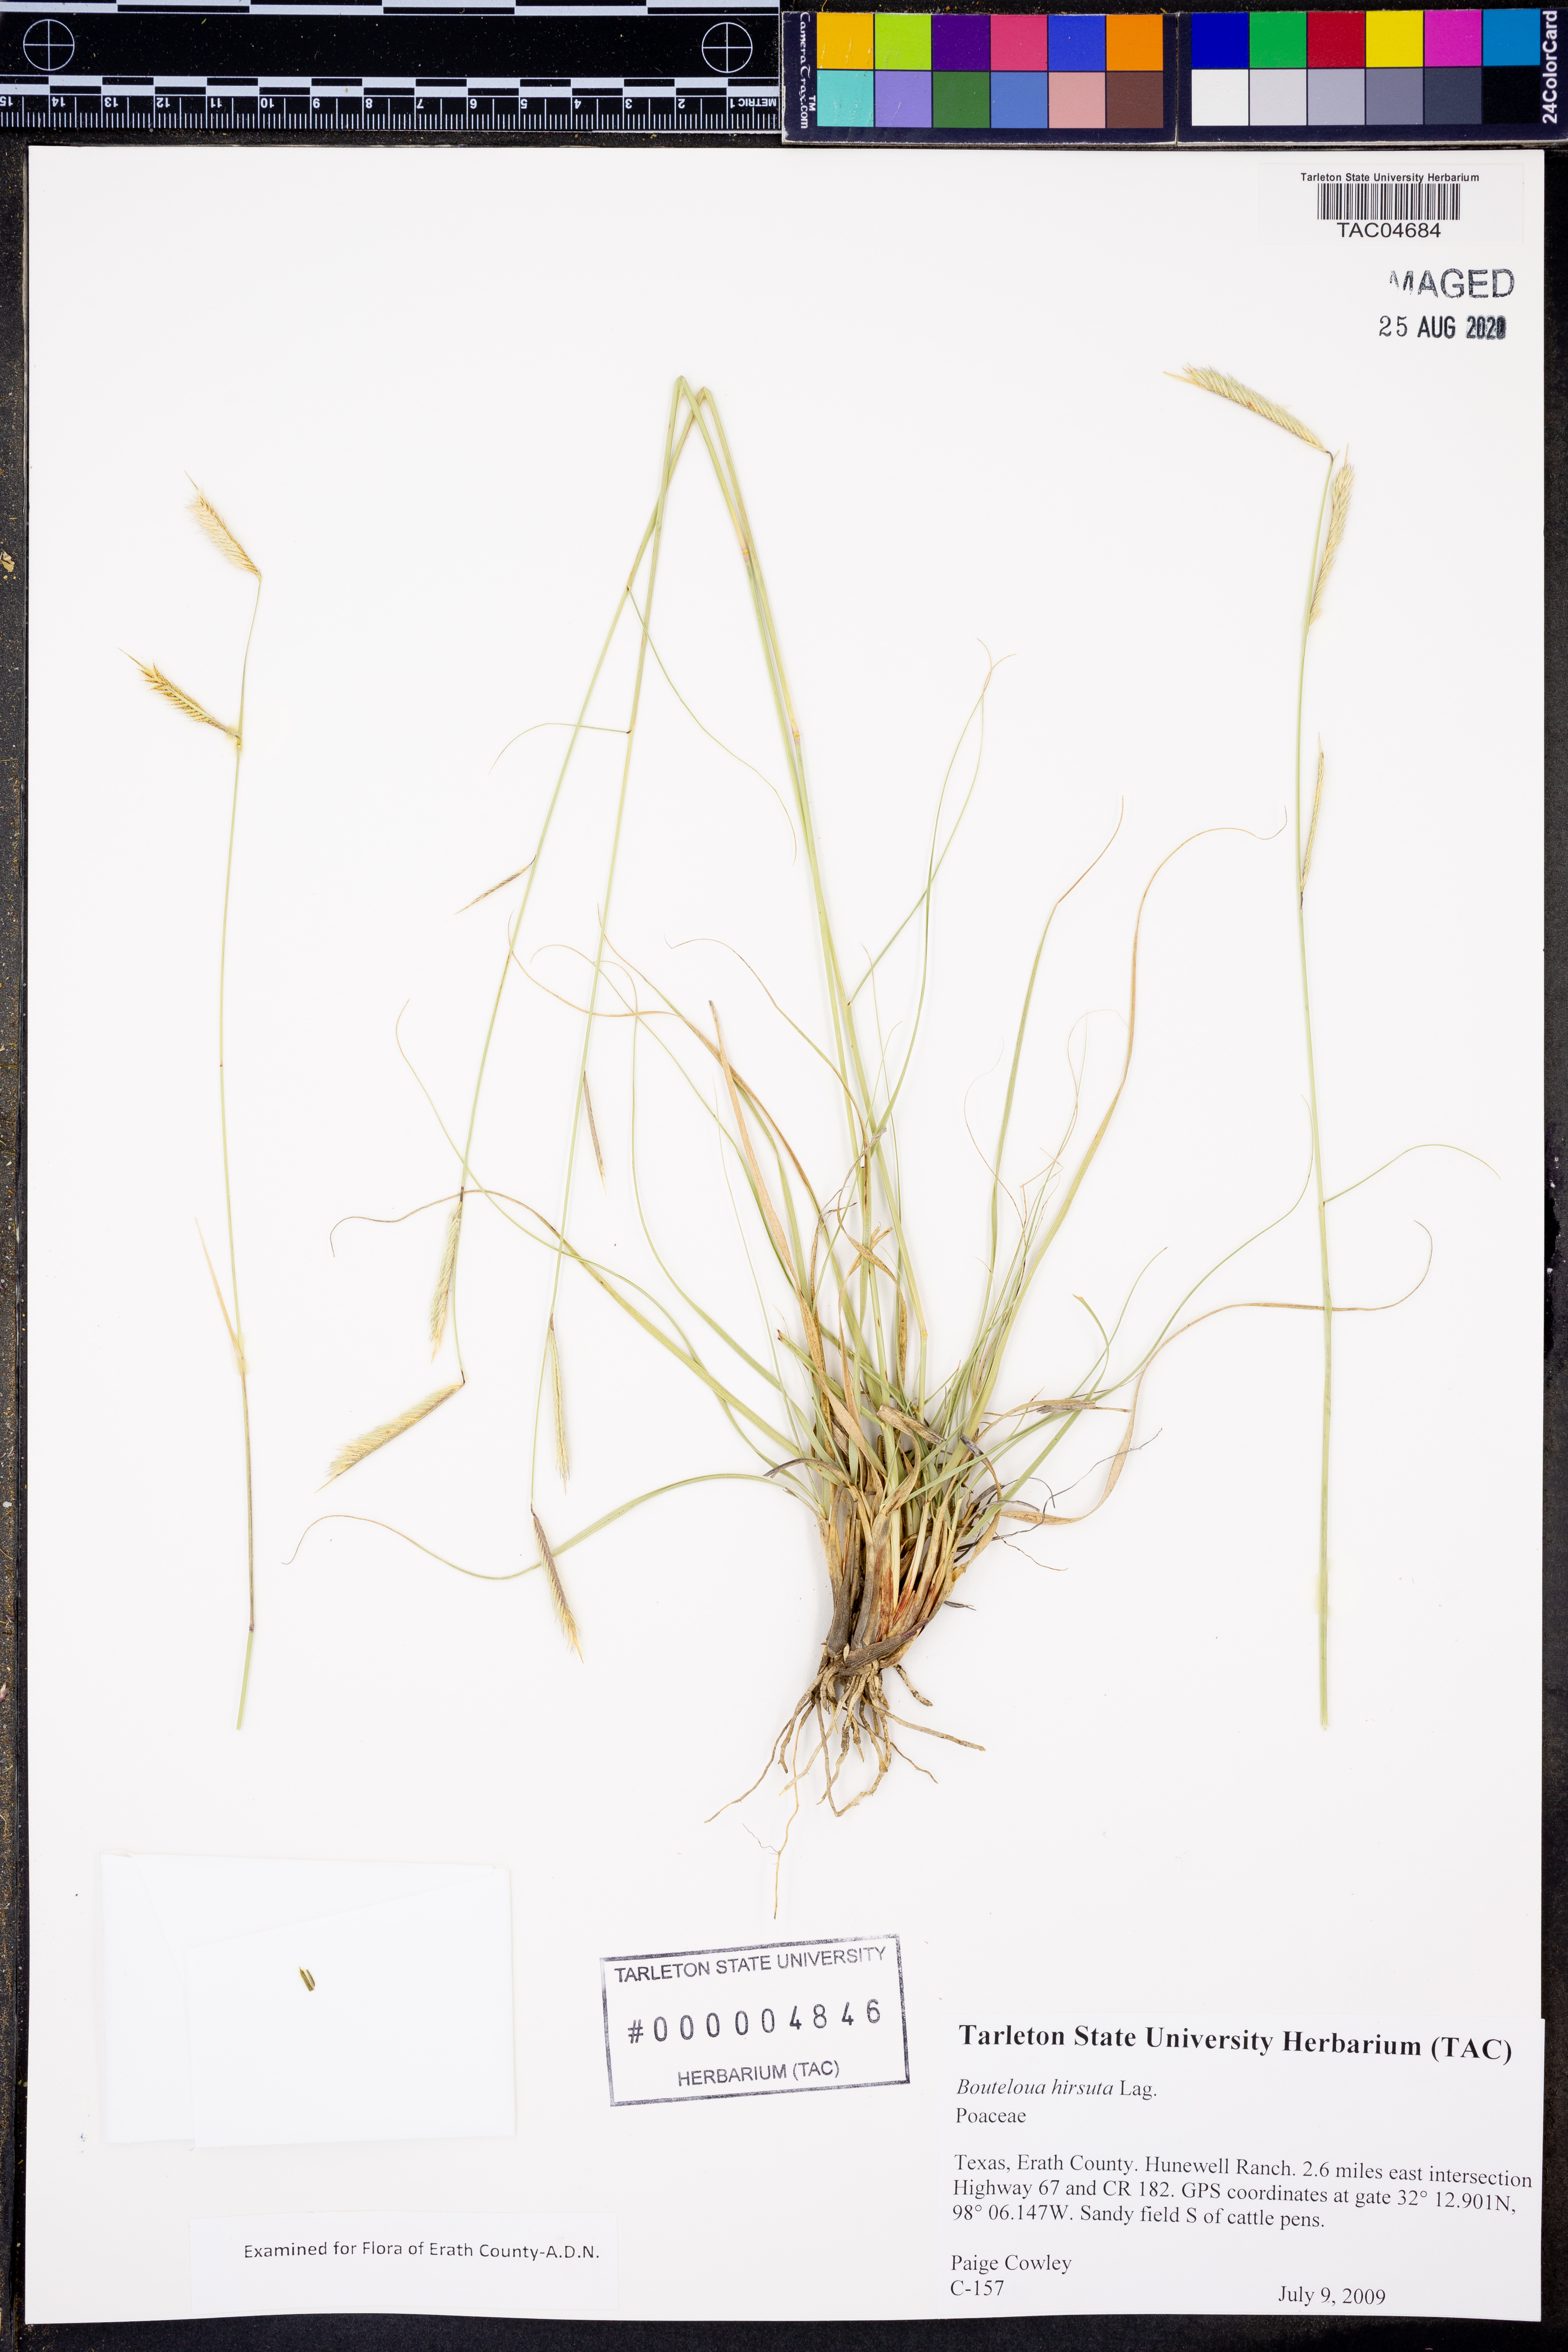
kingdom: Plantae
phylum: Tracheophyta
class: Liliopsida
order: Poales
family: Poaceae
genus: Bouteloua
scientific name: Bouteloua hirsuta
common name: Hairy grama
